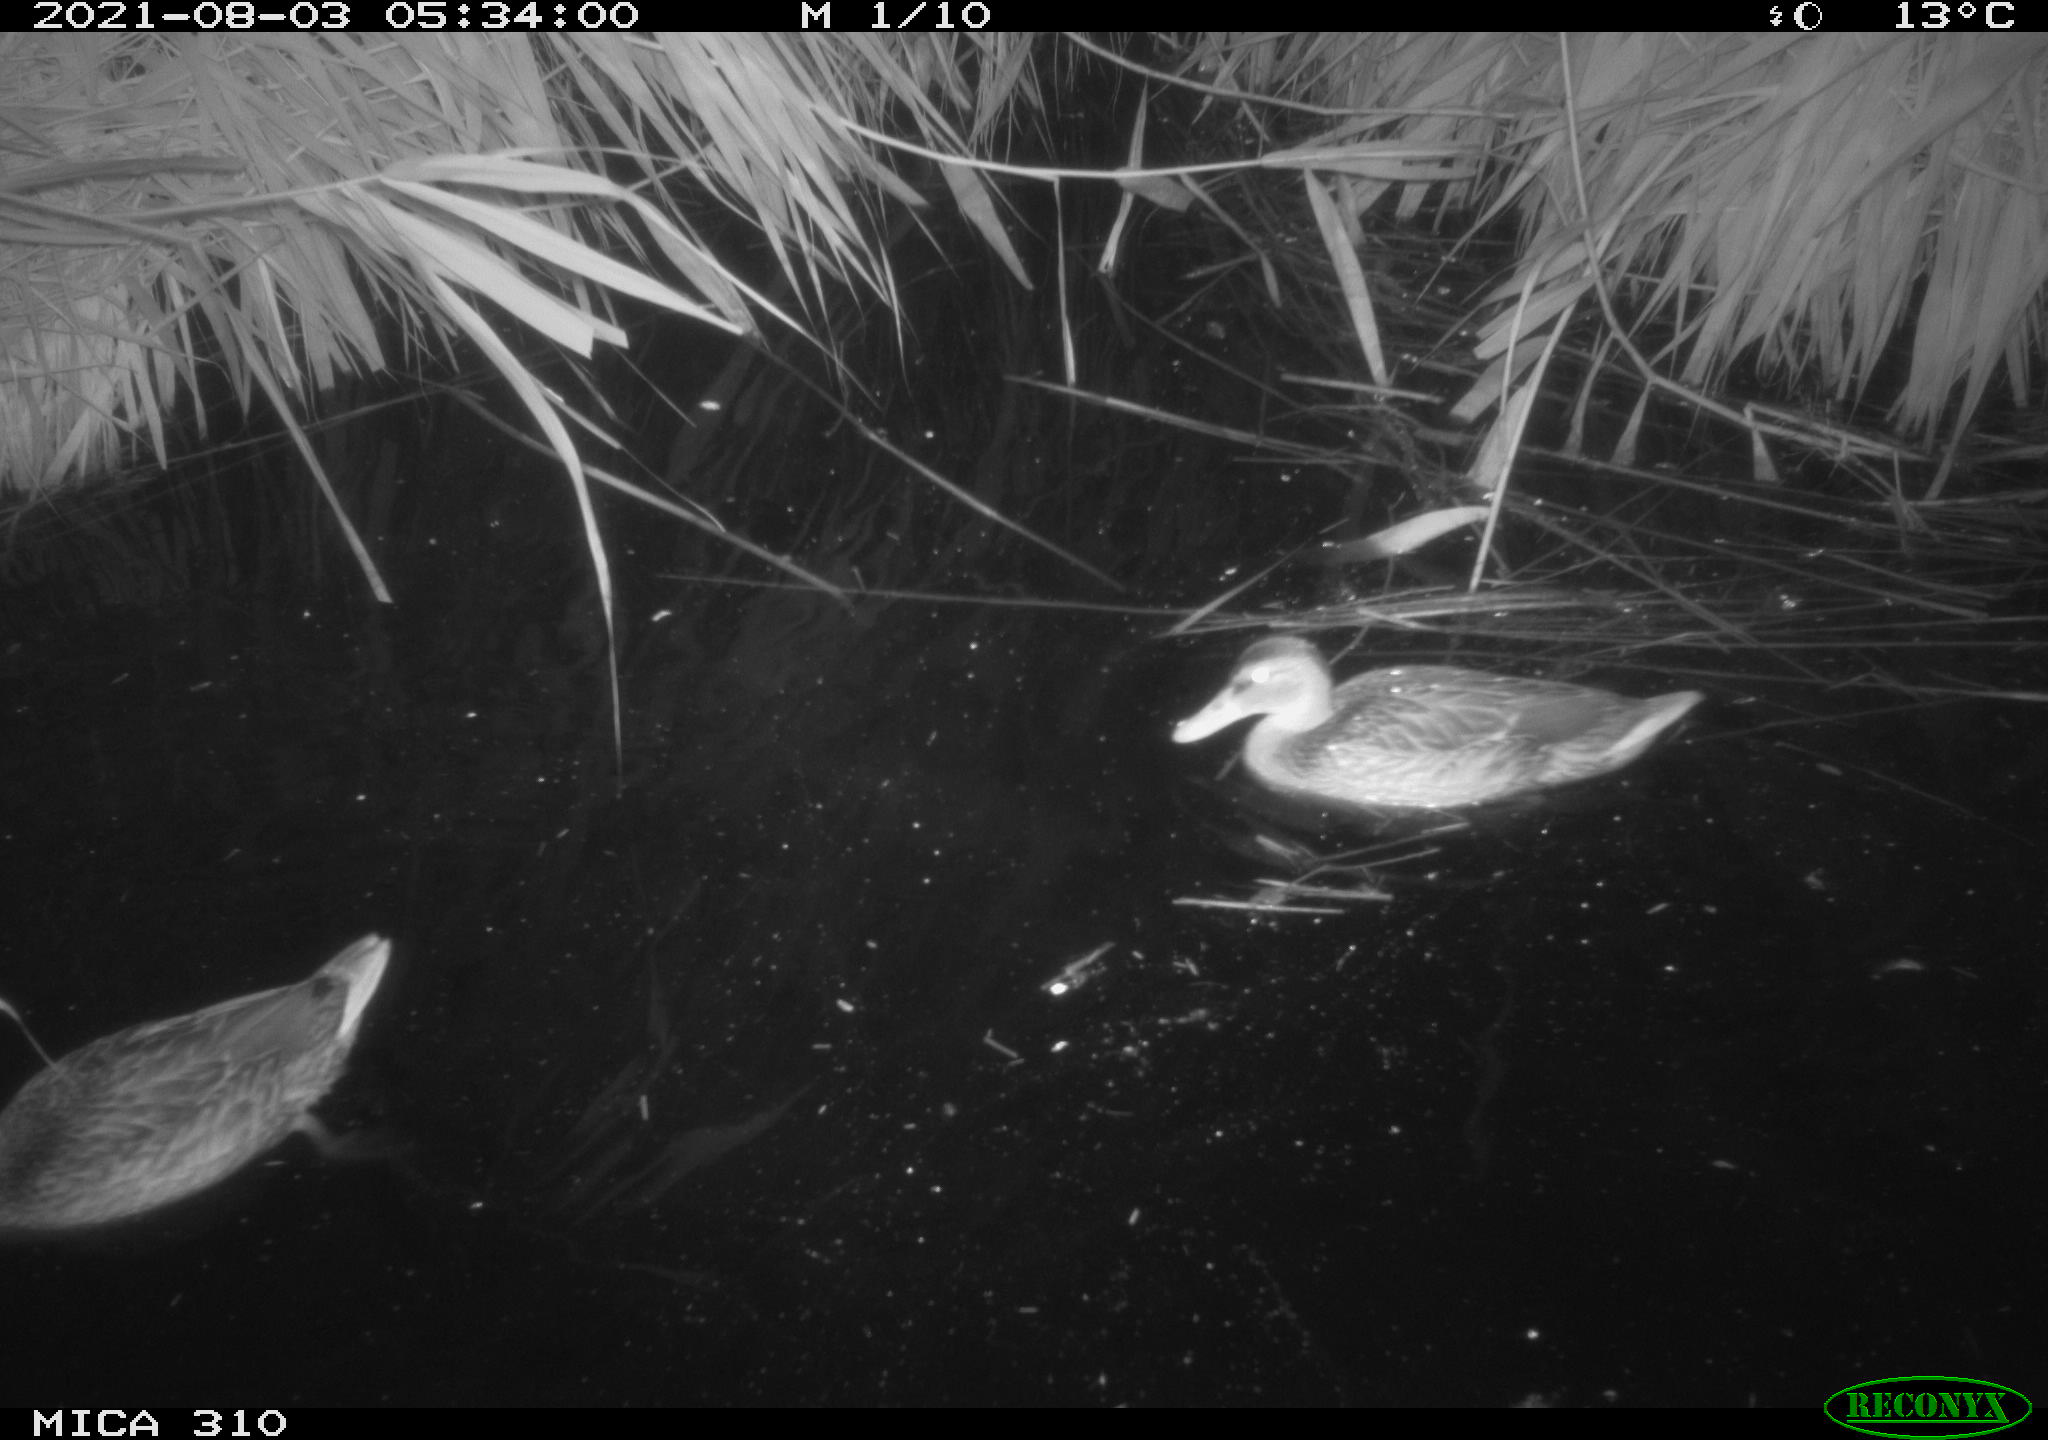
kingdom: Animalia
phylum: Chordata
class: Aves
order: Gruiformes
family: Rallidae
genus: Gallinula
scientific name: Gallinula chloropus
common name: Common moorhen
